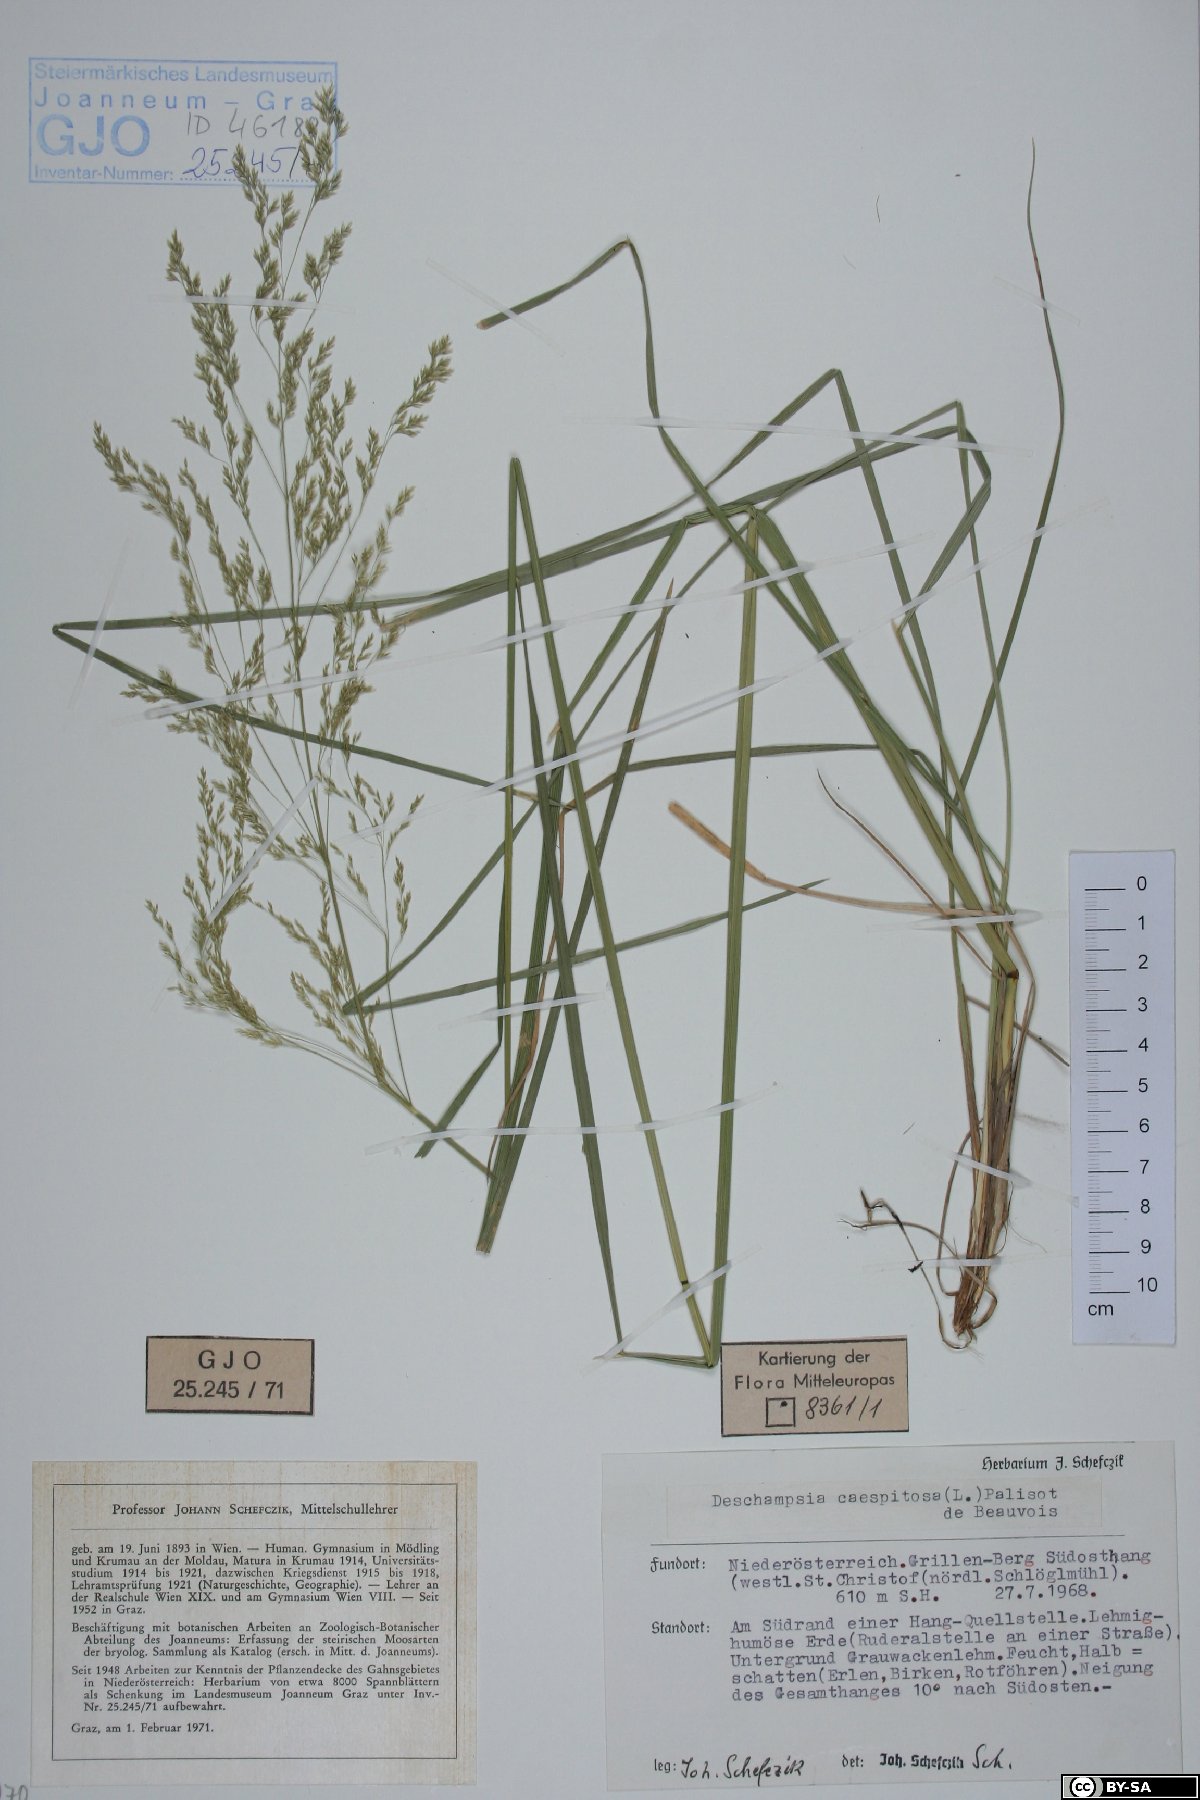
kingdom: Plantae
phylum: Tracheophyta
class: Liliopsida
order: Poales
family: Poaceae
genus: Deschampsia
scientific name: Deschampsia cespitosa
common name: Tufted hair-grass
